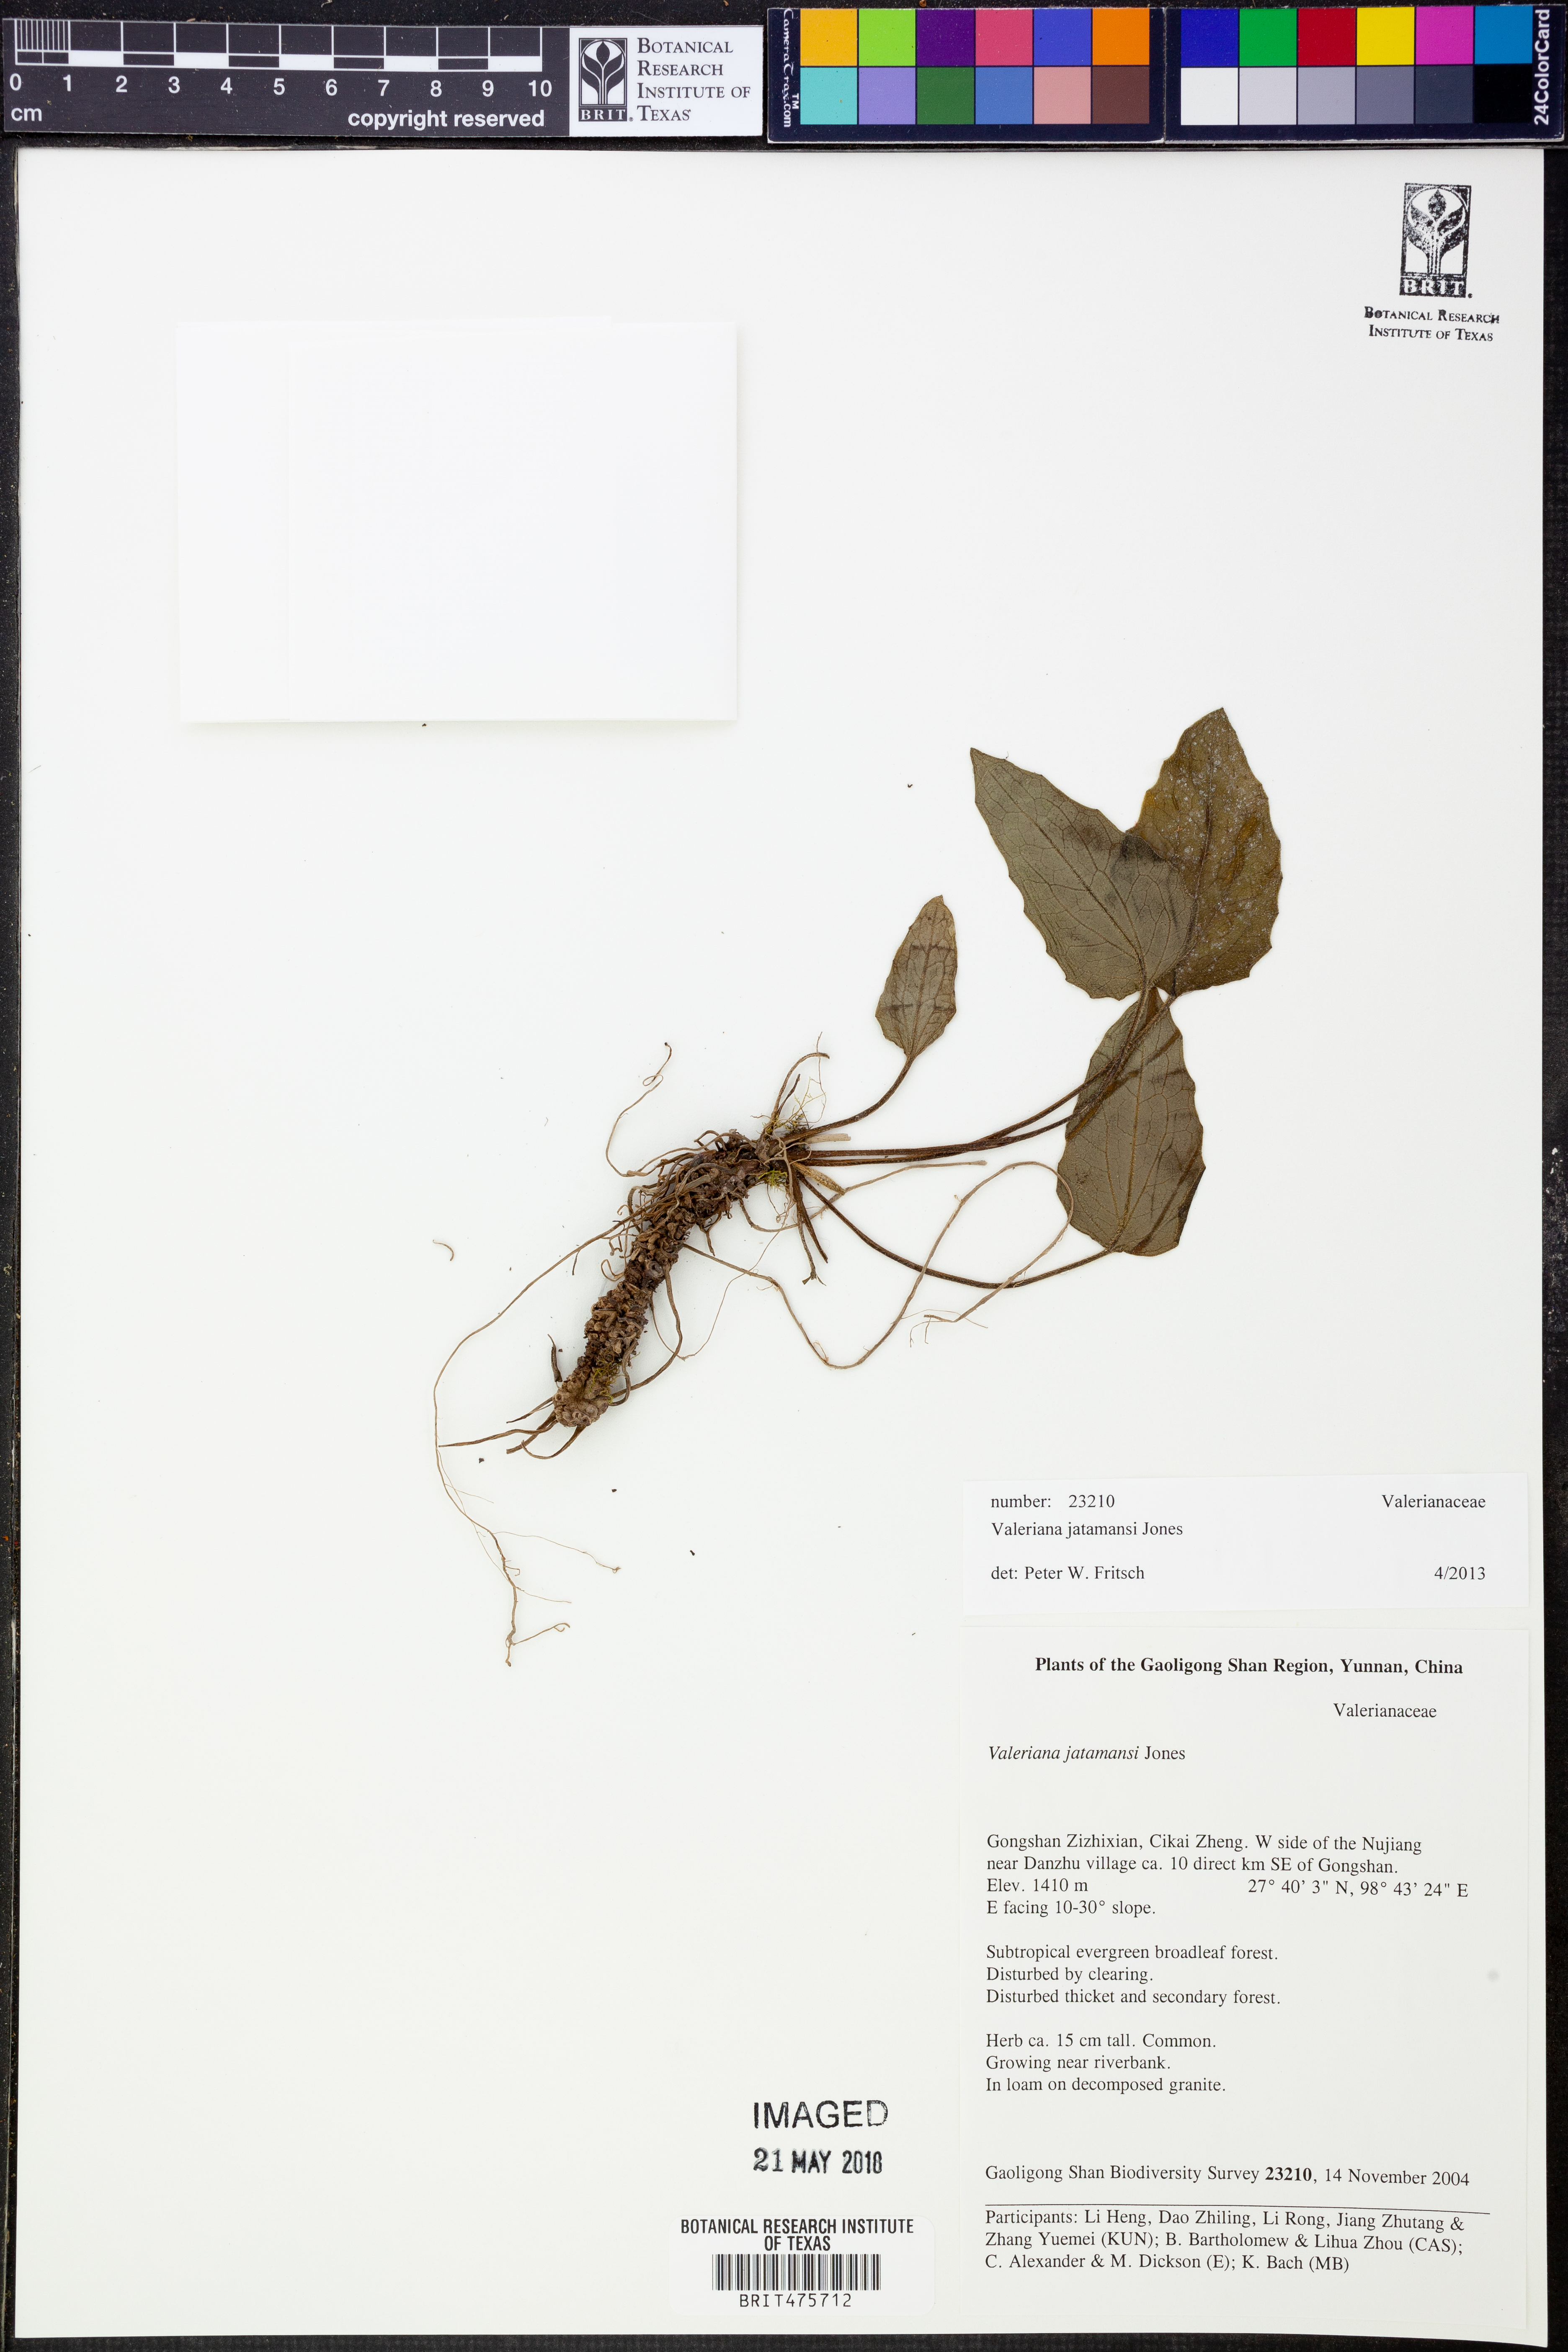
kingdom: Plantae
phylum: Tracheophyta
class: Magnoliopsida
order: Dipsacales
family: Caprifoliaceae
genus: Valeriana
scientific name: Valeriana jatamansi
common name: Indian valerian
